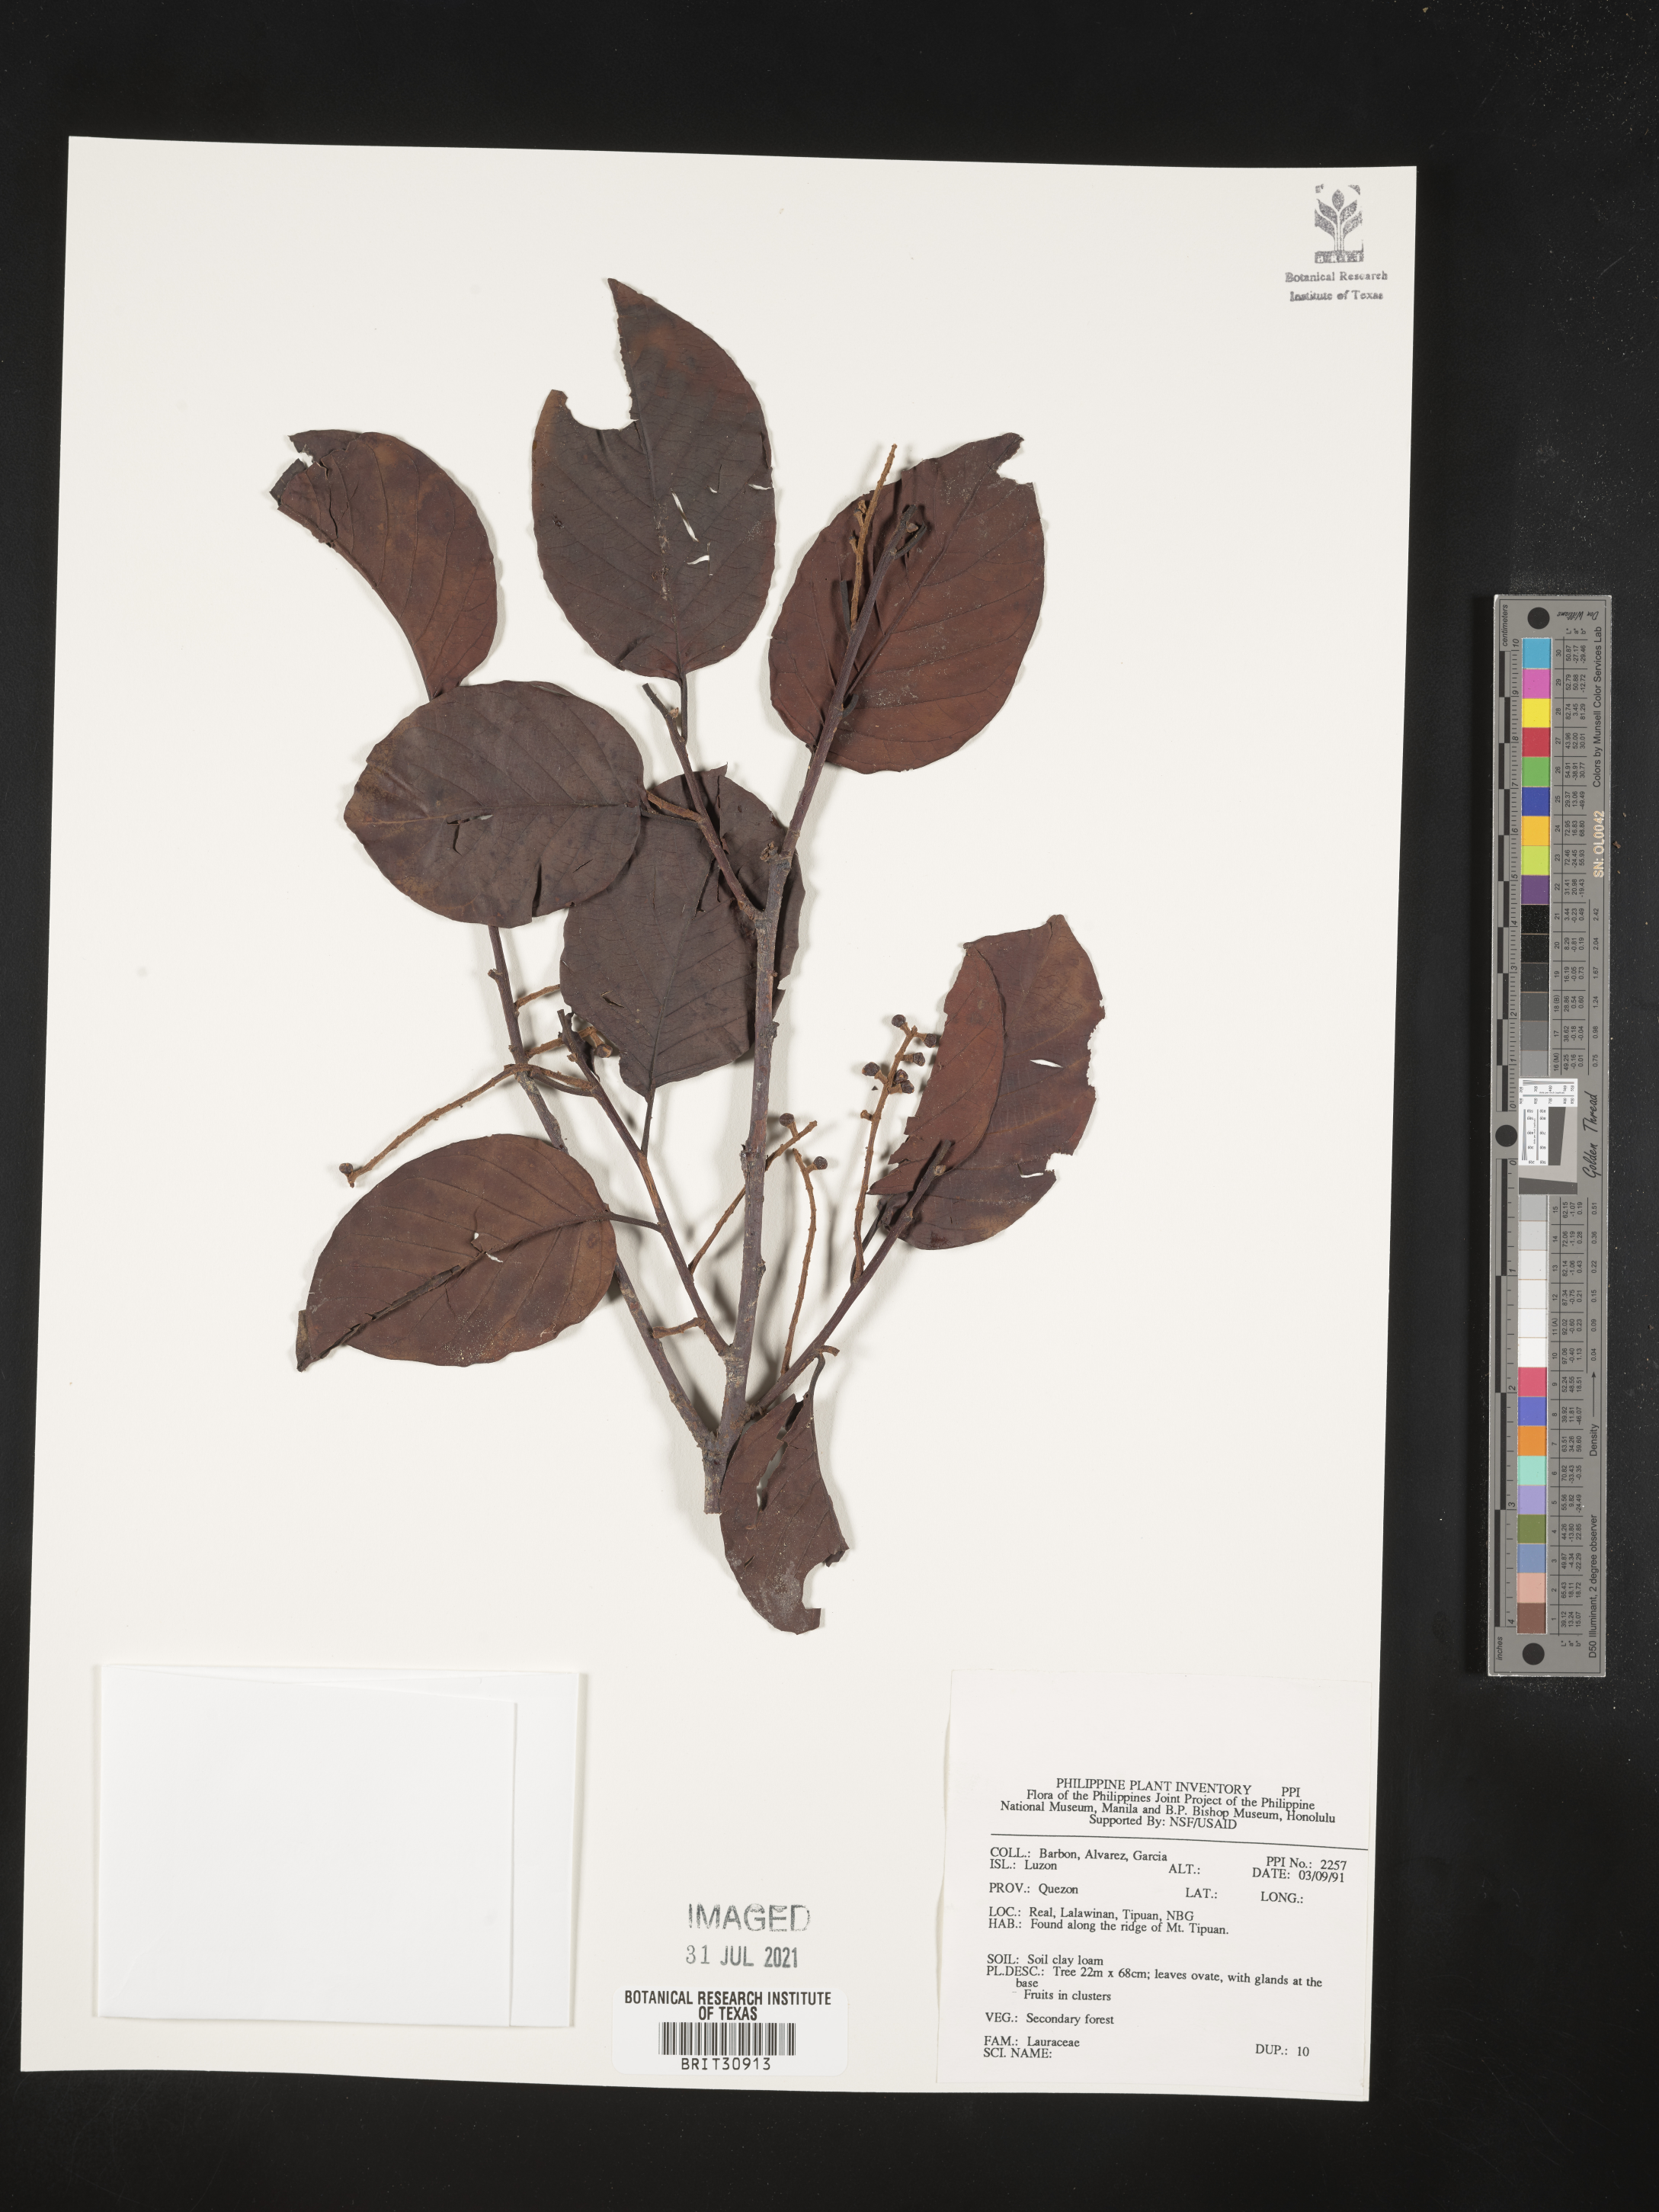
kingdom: Plantae
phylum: Tracheophyta
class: Magnoliopsida
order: Laurales
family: Lauraceae
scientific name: Lauraceae
